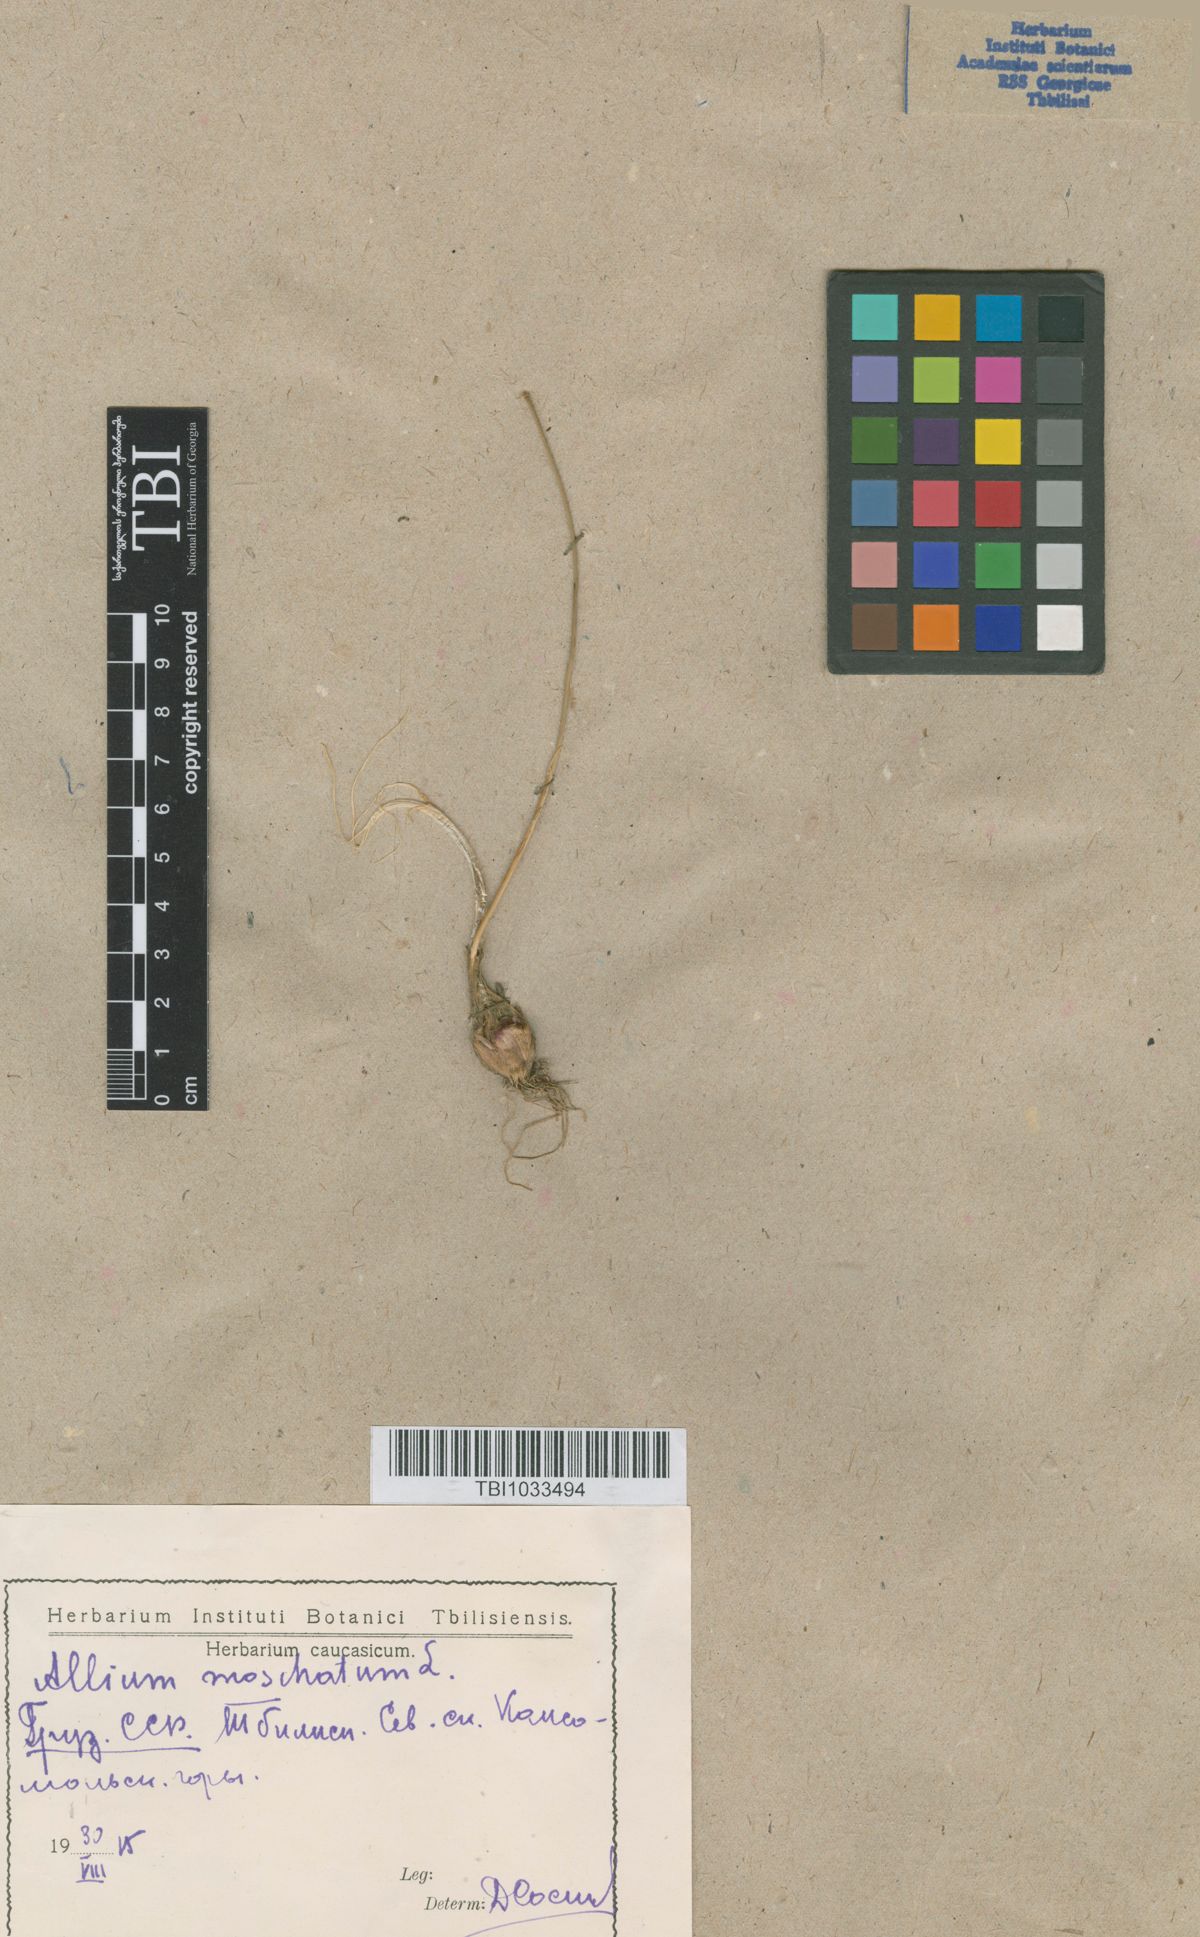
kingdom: Plantae
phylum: Tracheophyta
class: Liliopsida
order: Asparagales
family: Amaryllidaceae
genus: Allium
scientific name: Allium moschatum
